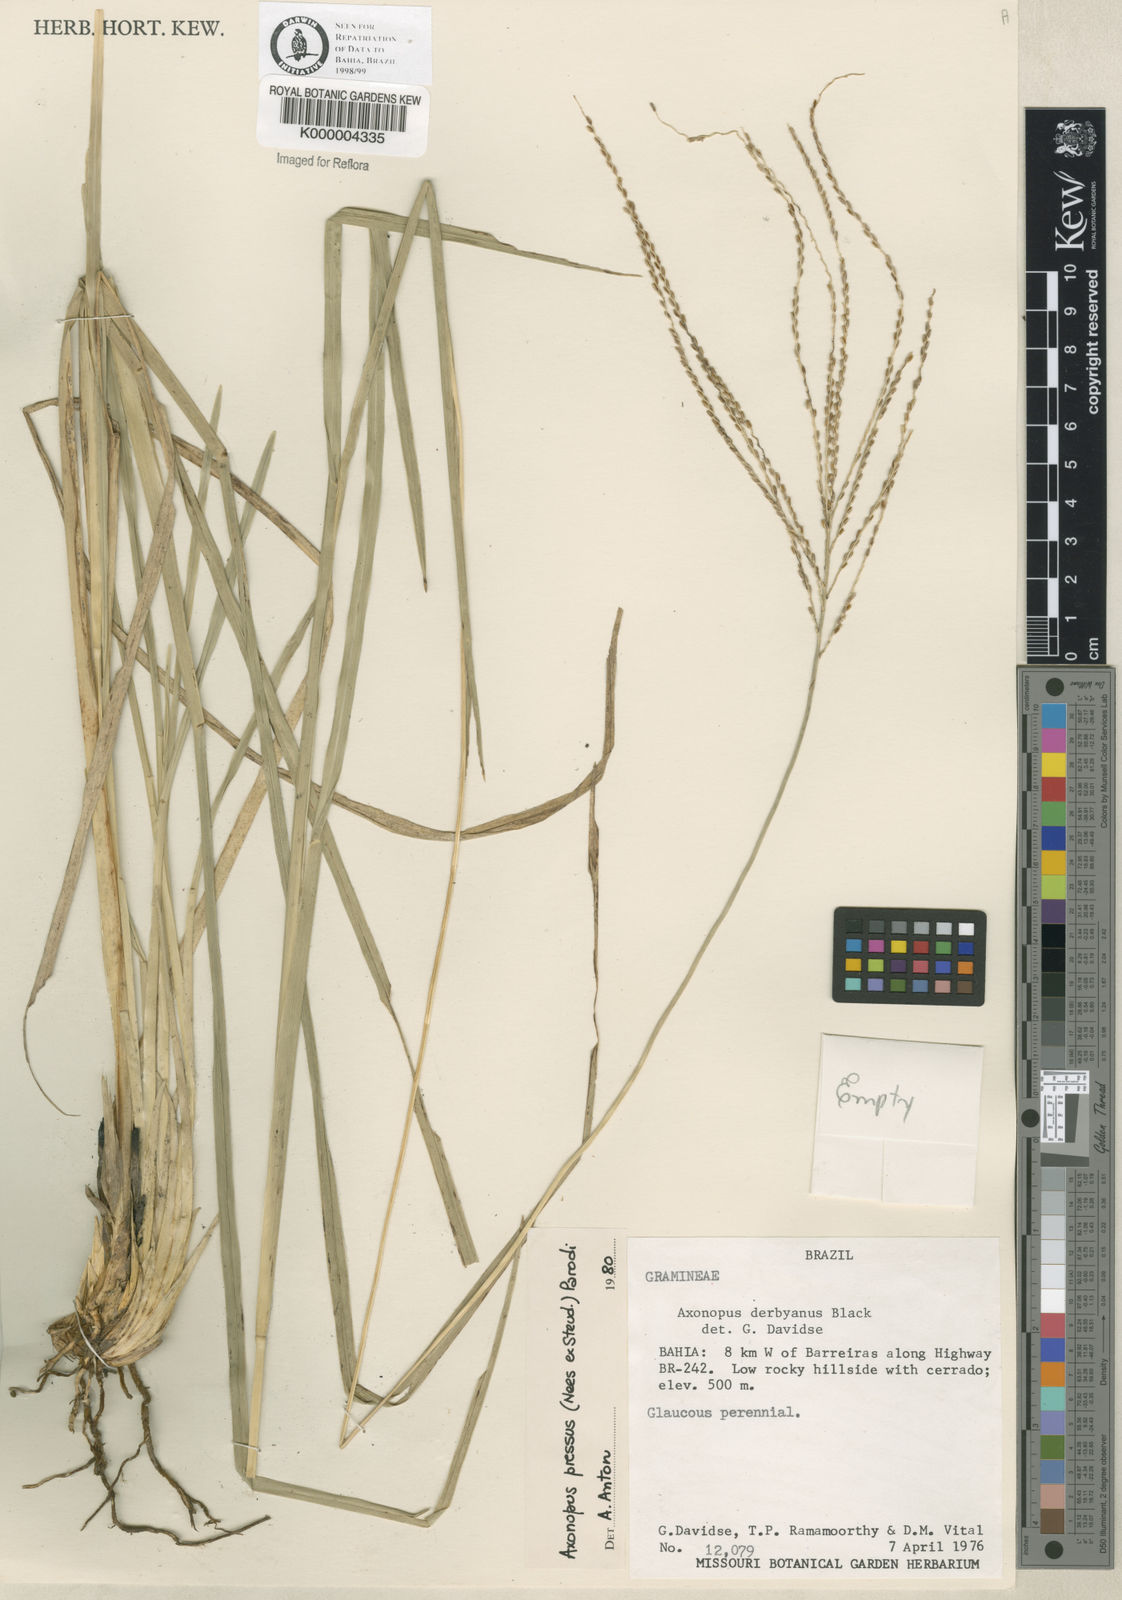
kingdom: Plantae
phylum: Tracheophyta
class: Liliopsida
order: Poales
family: Poaceae
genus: Axonopus
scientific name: Axonopus pressus
